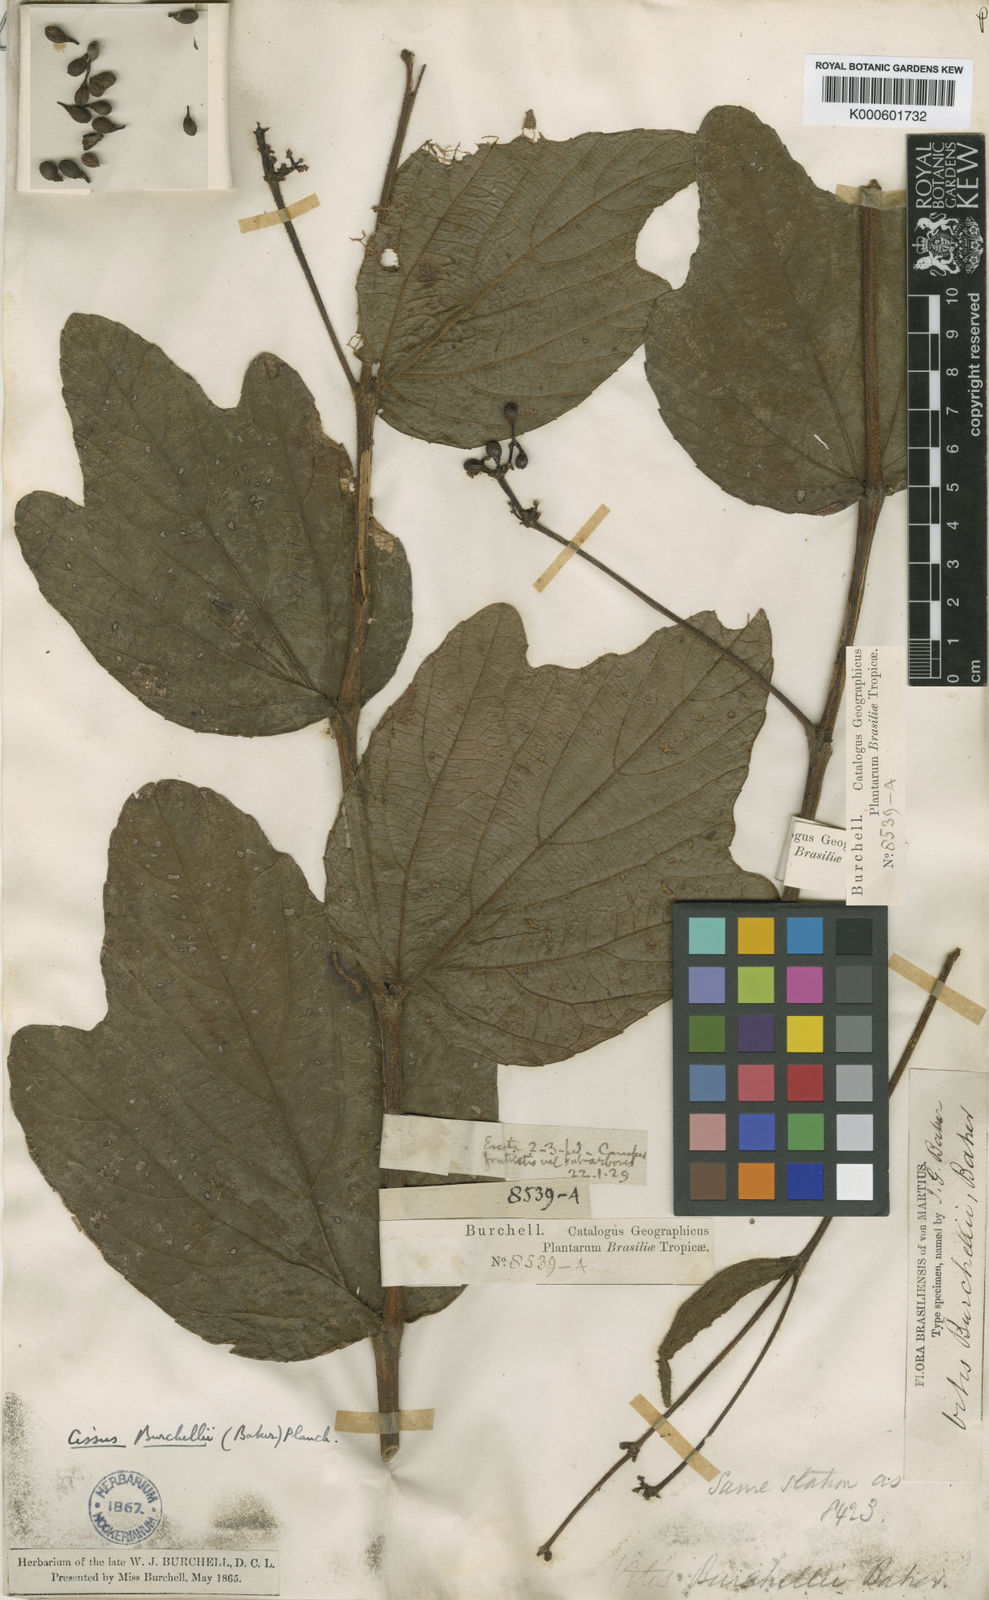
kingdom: Plantae
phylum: Tracheophyta
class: Magnoliopsida
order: Vitales
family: Vitaceae
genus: Cissus
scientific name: Cissus erosa
